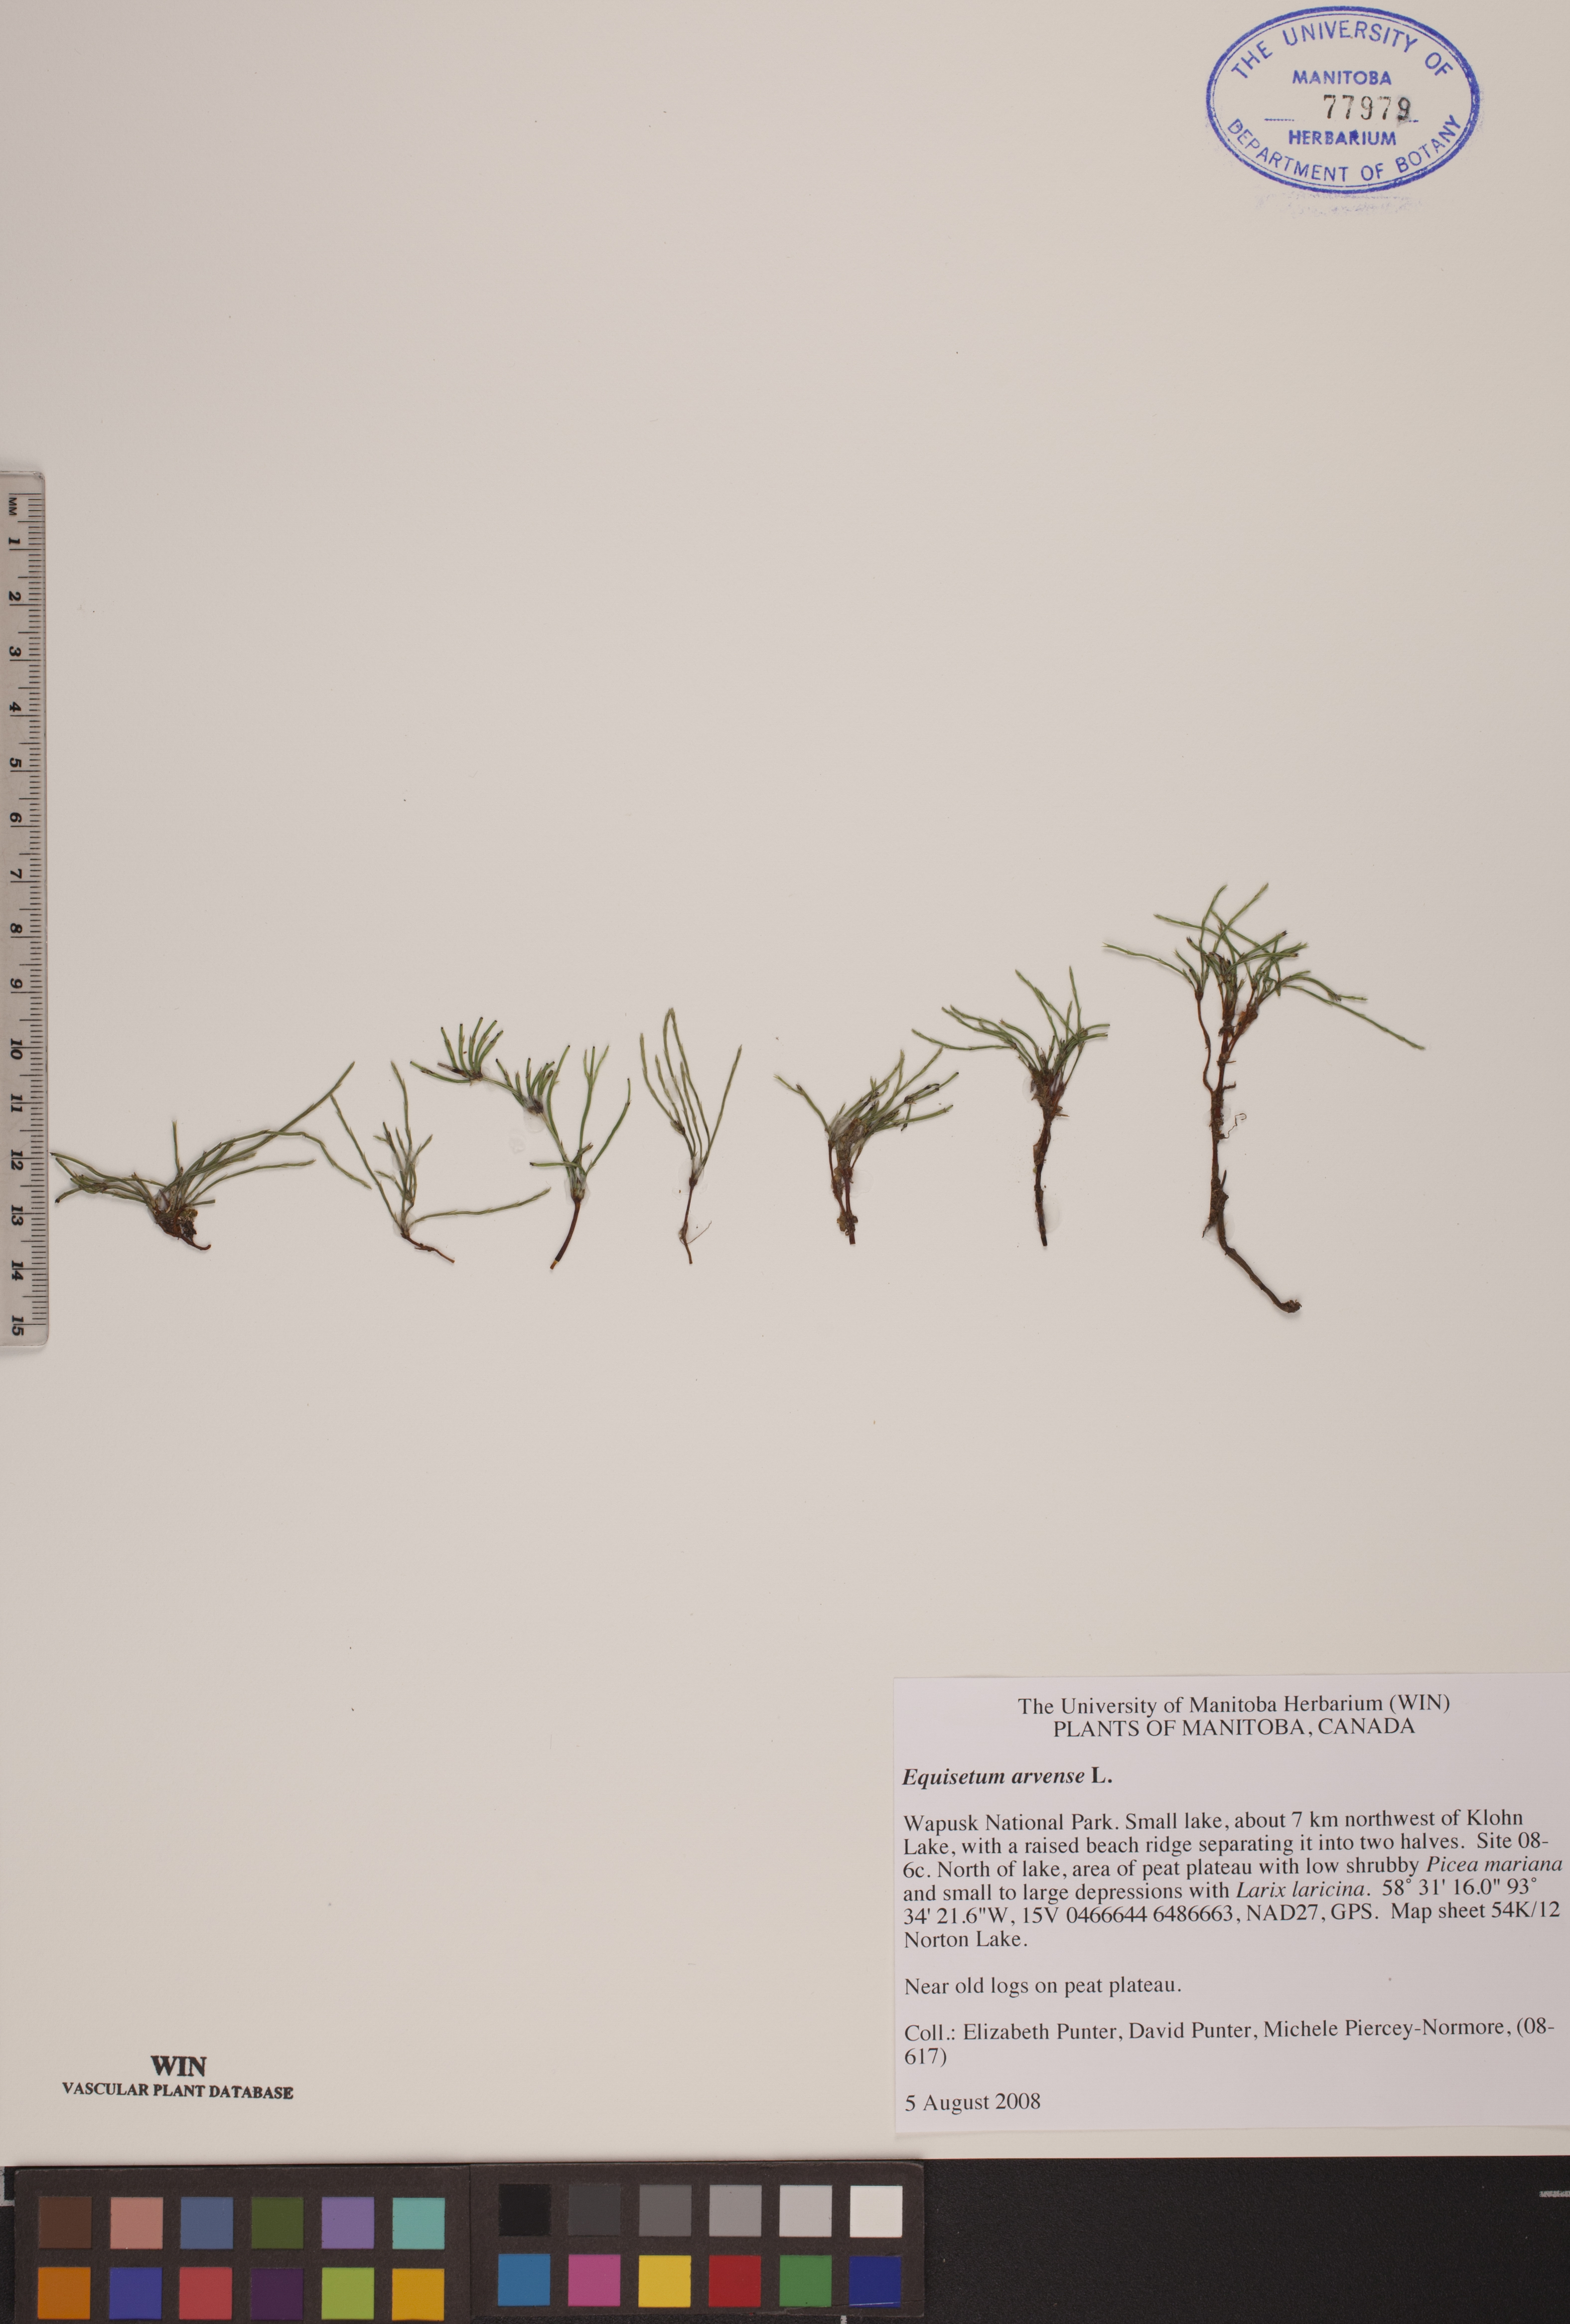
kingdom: Plantae
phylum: Tracheophyta
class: Polypodiopsida
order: Equisetales
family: Equisetaceae
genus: Equisetum
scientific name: Equisetum arvense
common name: Field horsetail
